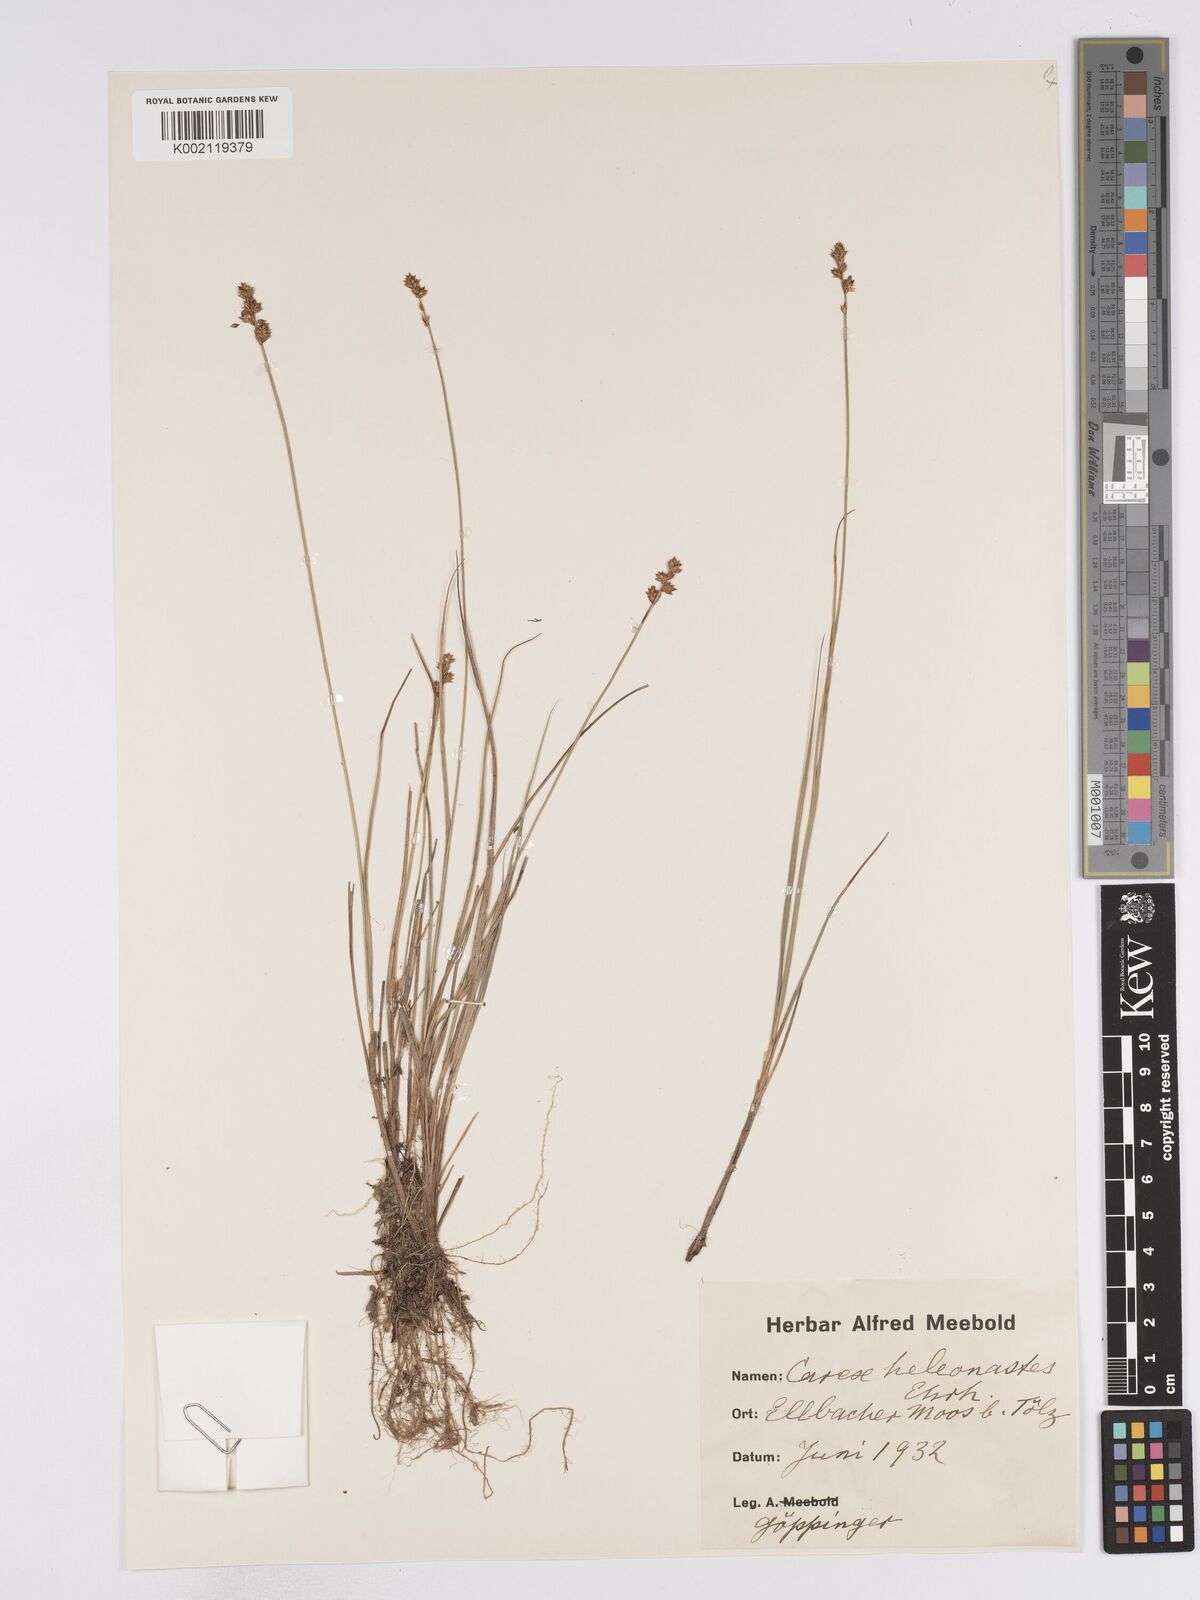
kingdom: Plantae
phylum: Tracheophyta
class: Liliopsida
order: Poales
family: Cyperaceae
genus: Carex
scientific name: Carex heleonastes
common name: Hudson bay sedge
